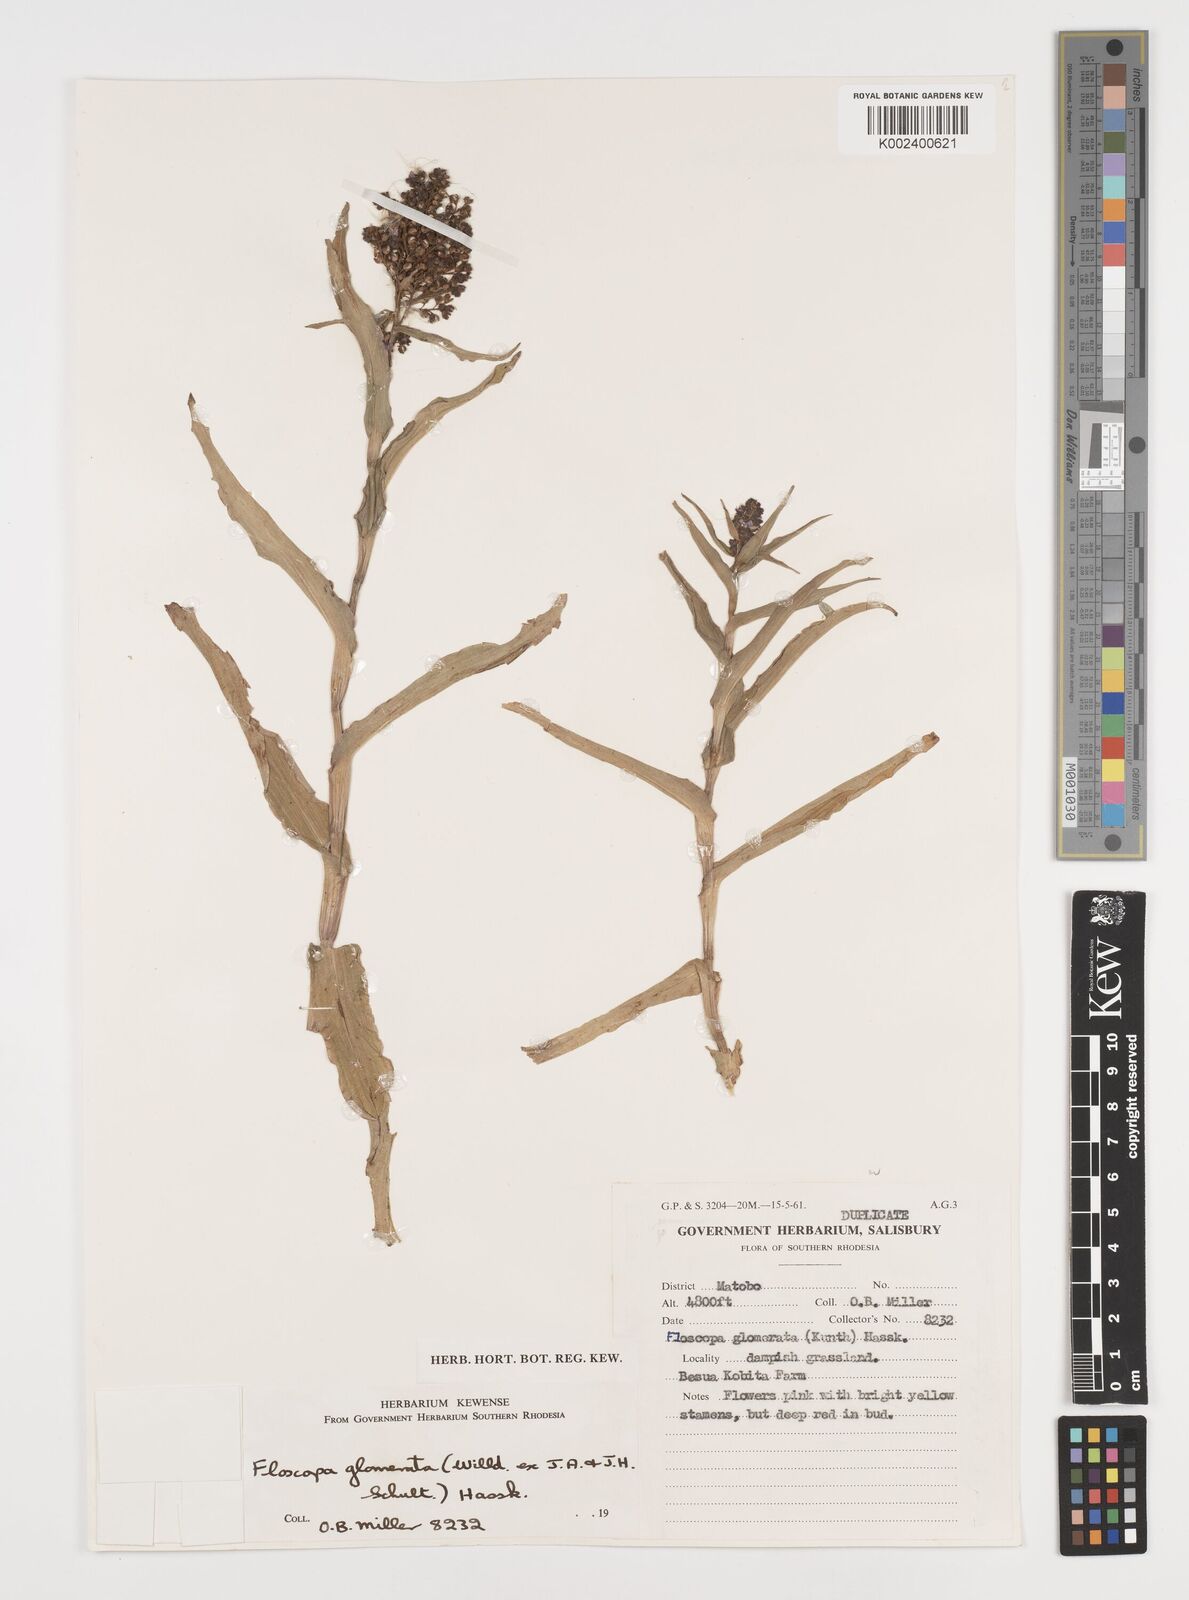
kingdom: Plantae
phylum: Tracheophyta
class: Liliopsida
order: Commelinales
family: Commelinaceae
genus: Floscopa
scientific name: Floscopa glomerata
